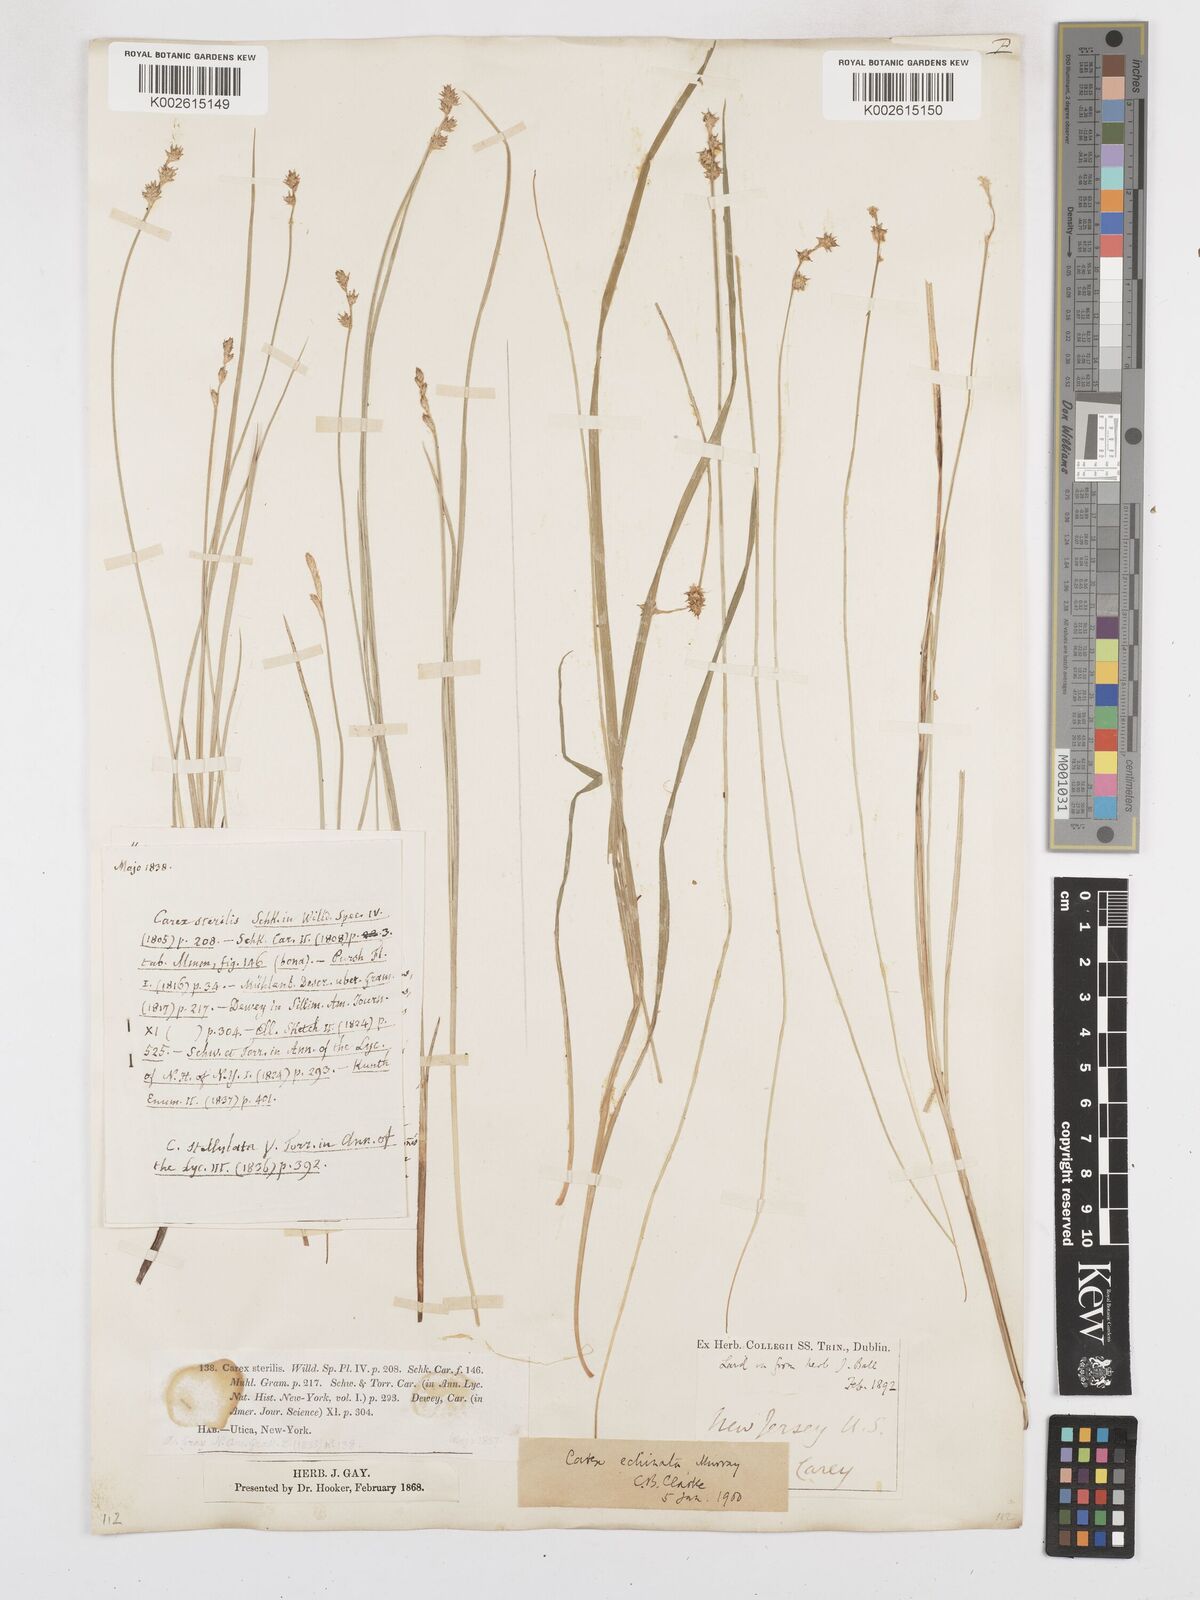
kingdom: Plantae
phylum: Tracheophyta
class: Liliopsida
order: Poales
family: Cyperaceae
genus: Carex
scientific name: Carex echinata
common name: Star sedge
